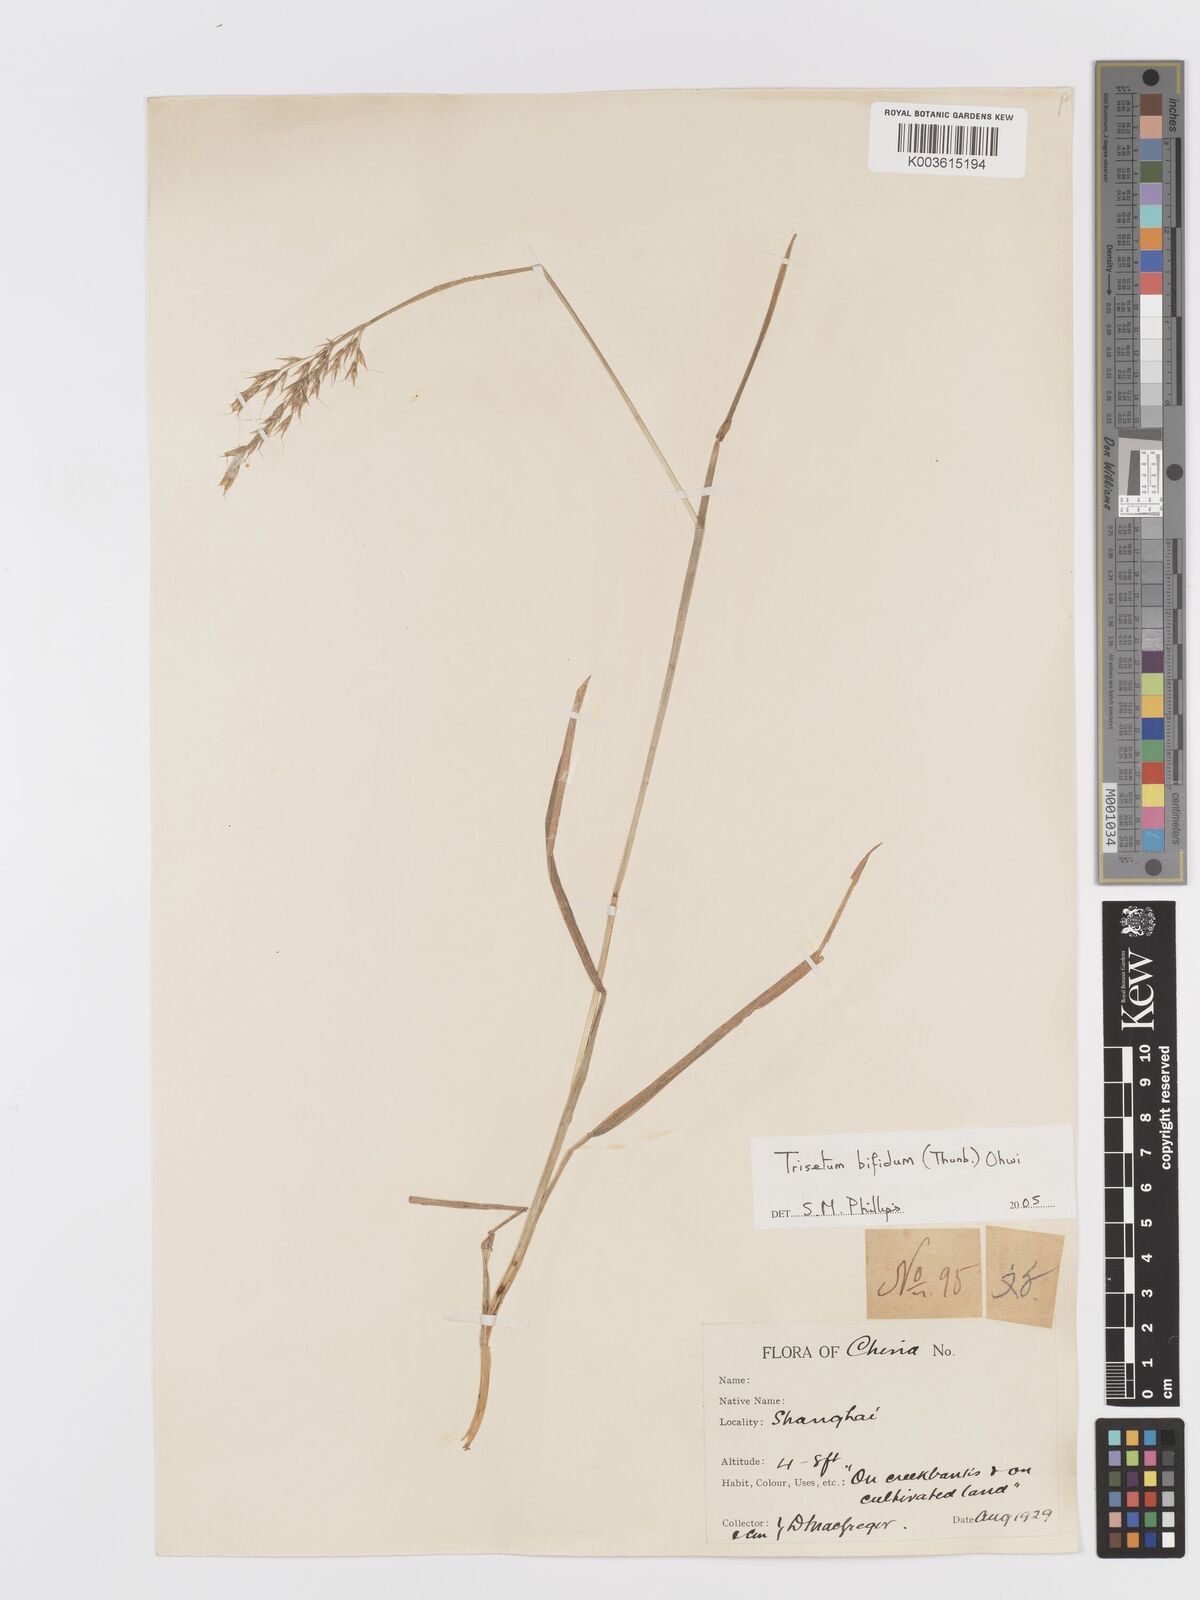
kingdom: Plantae
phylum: Tracheophyta
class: Liliopsida
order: Poales
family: Poaceae
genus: Sibirotrisetum
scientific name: Sibirotrisetum bifidum
